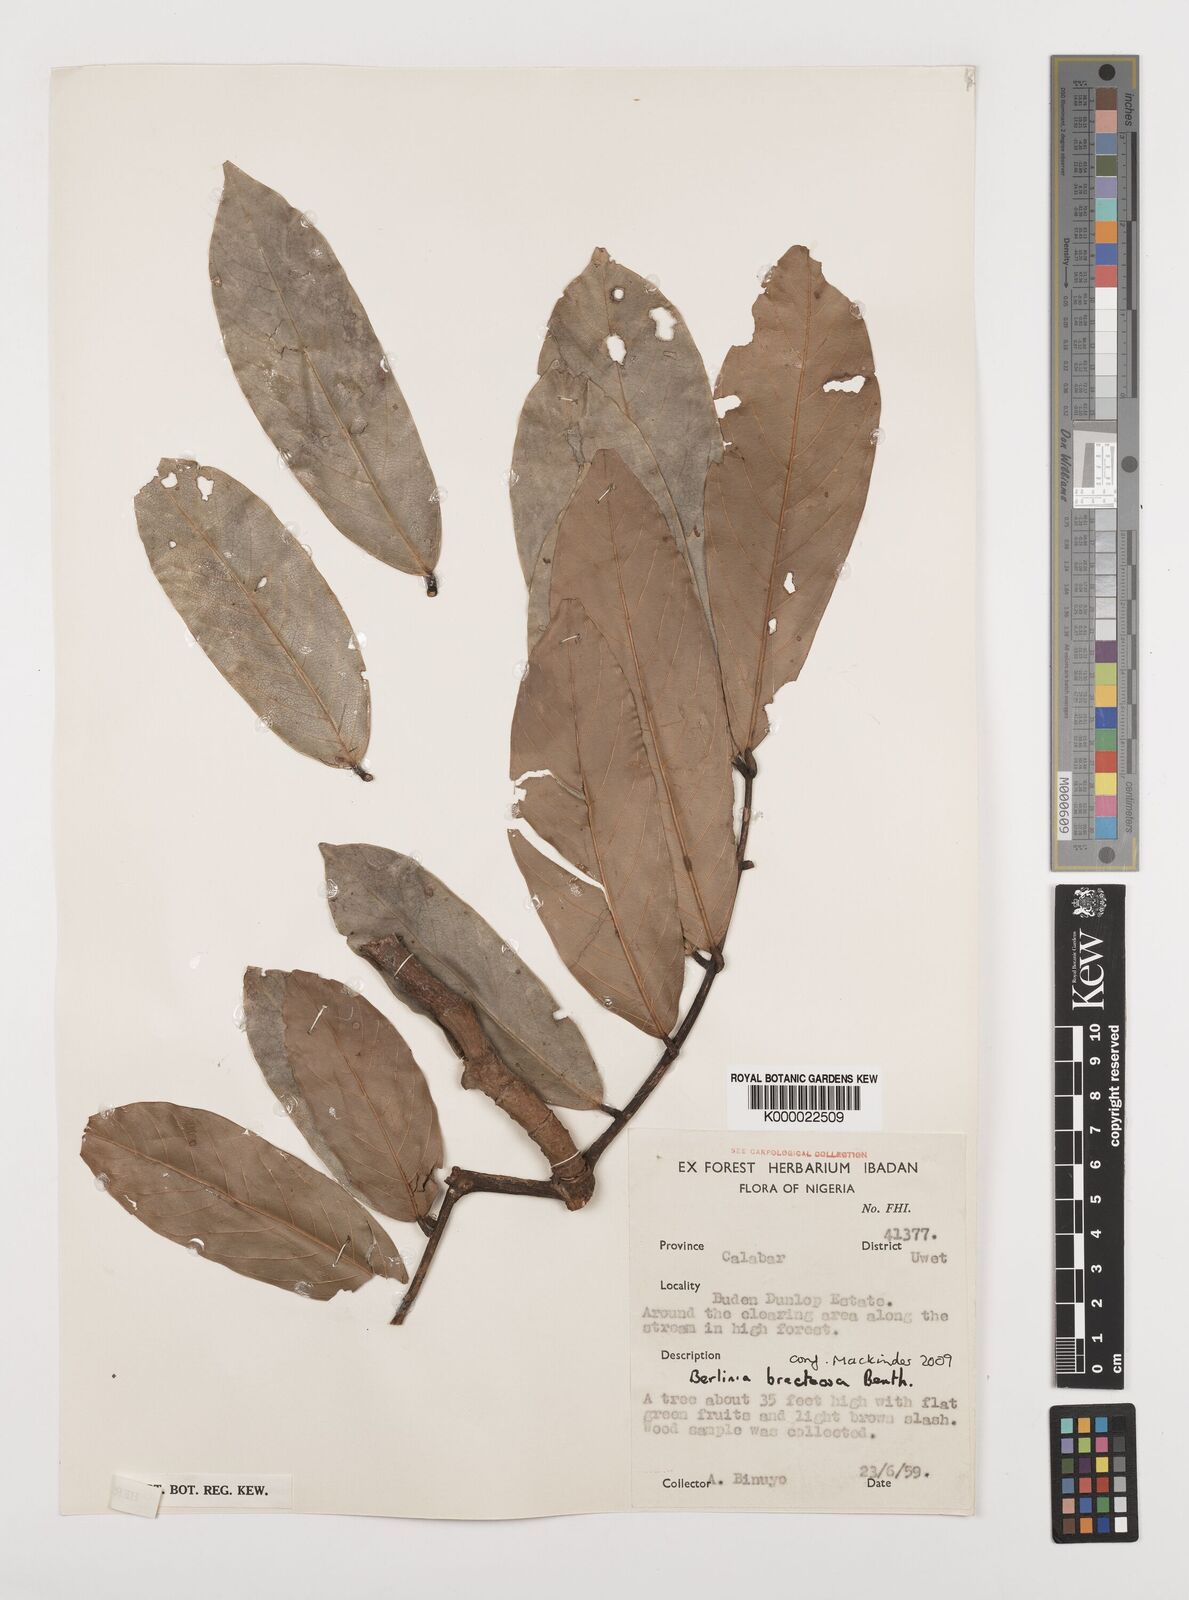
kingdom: Plantae
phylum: Tracheophyta
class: Magnoliopsida
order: Fabales
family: Fabaceae
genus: Berlinia
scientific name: Berlinia bracteosa
